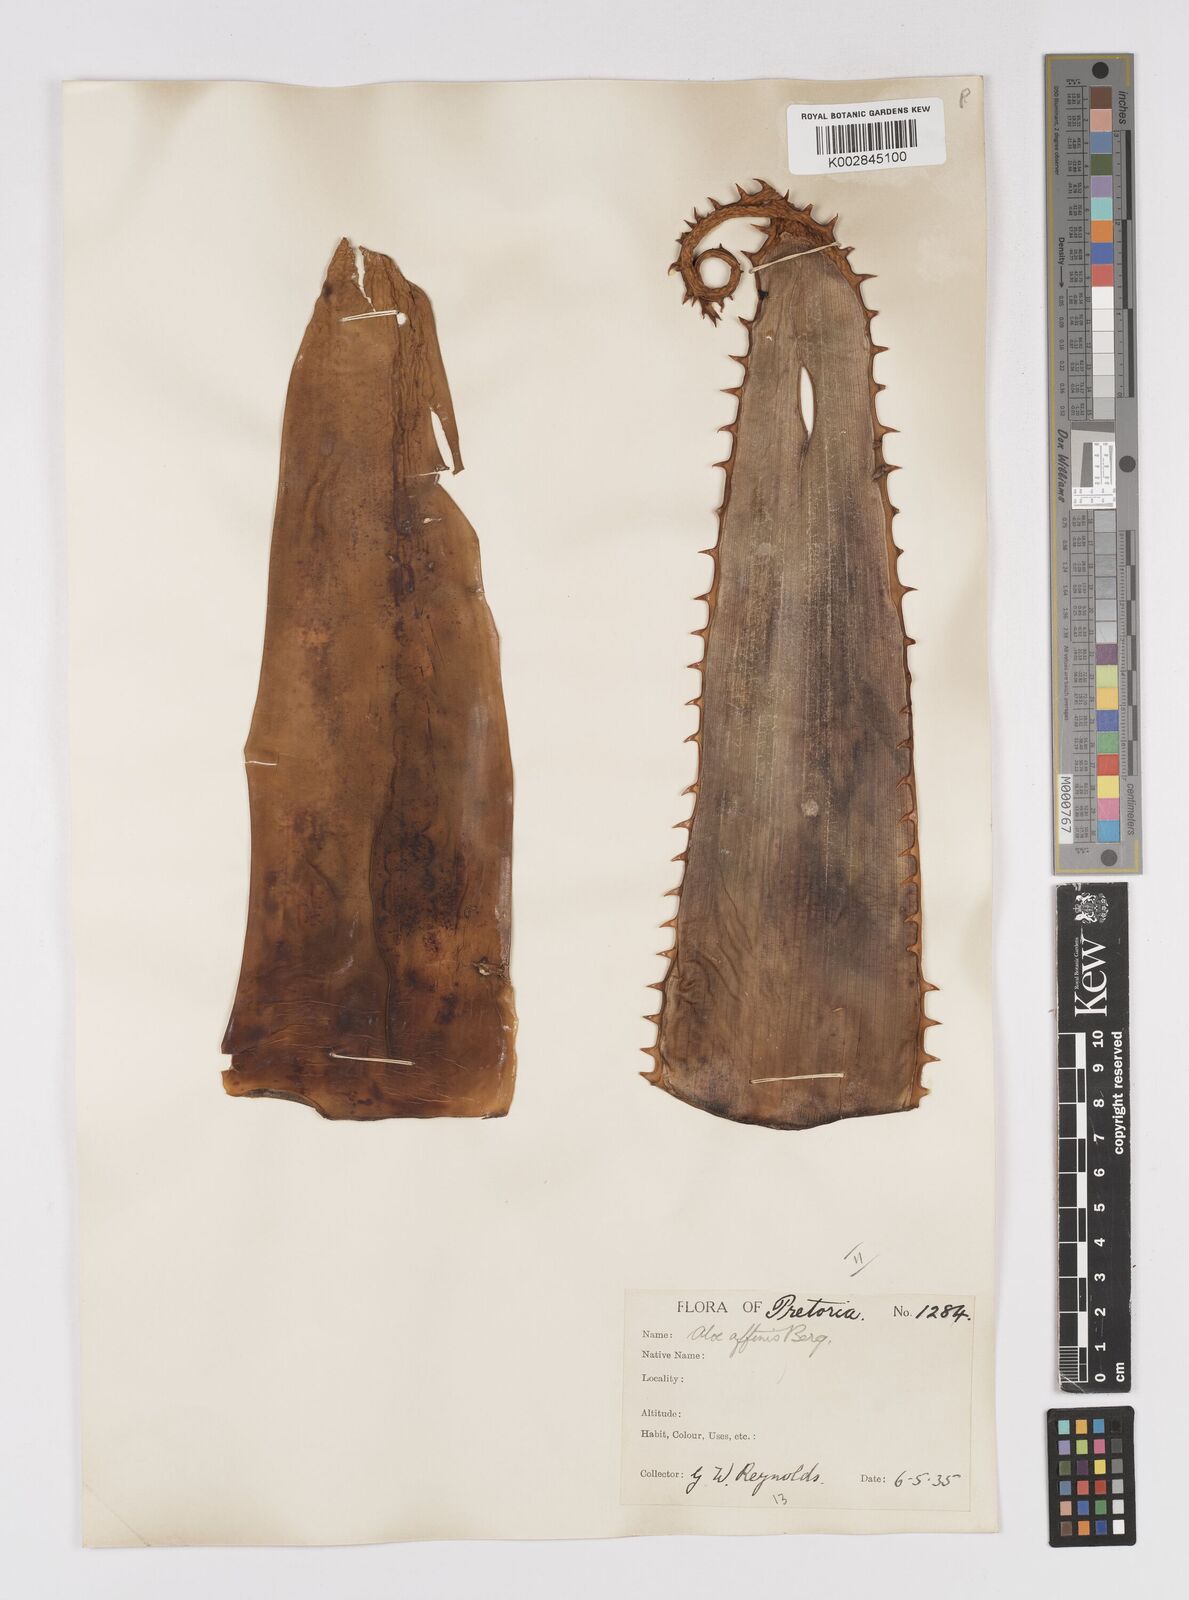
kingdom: Plantae
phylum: Tracheophyta
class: Liliopsida
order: Asparagales
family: Asphodelaceae
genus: Aloe
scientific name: Aloe affinis
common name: Spotted aloe
